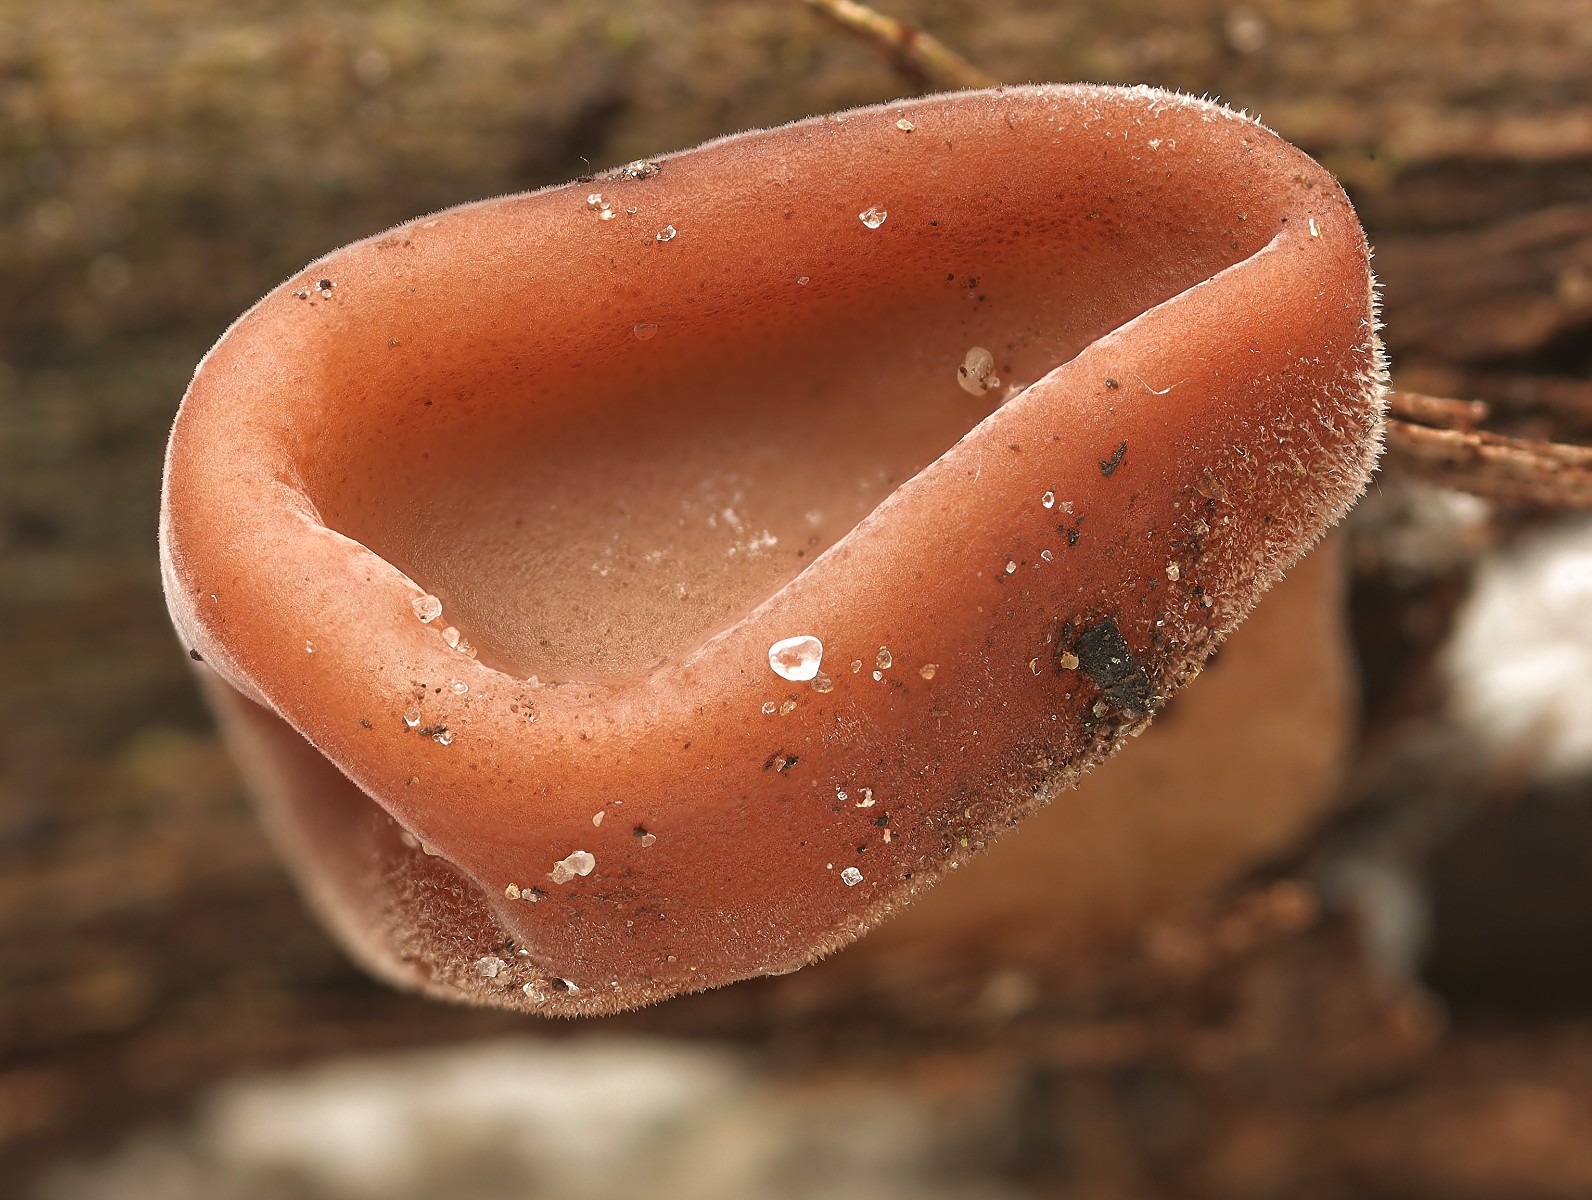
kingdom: Fungi
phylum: Basidiomycota
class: Agaricomycetes
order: Auriculariales
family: Auriculariaceae
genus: Auricularia
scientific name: Auricularia auricula-judae
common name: almindelig judasøre
